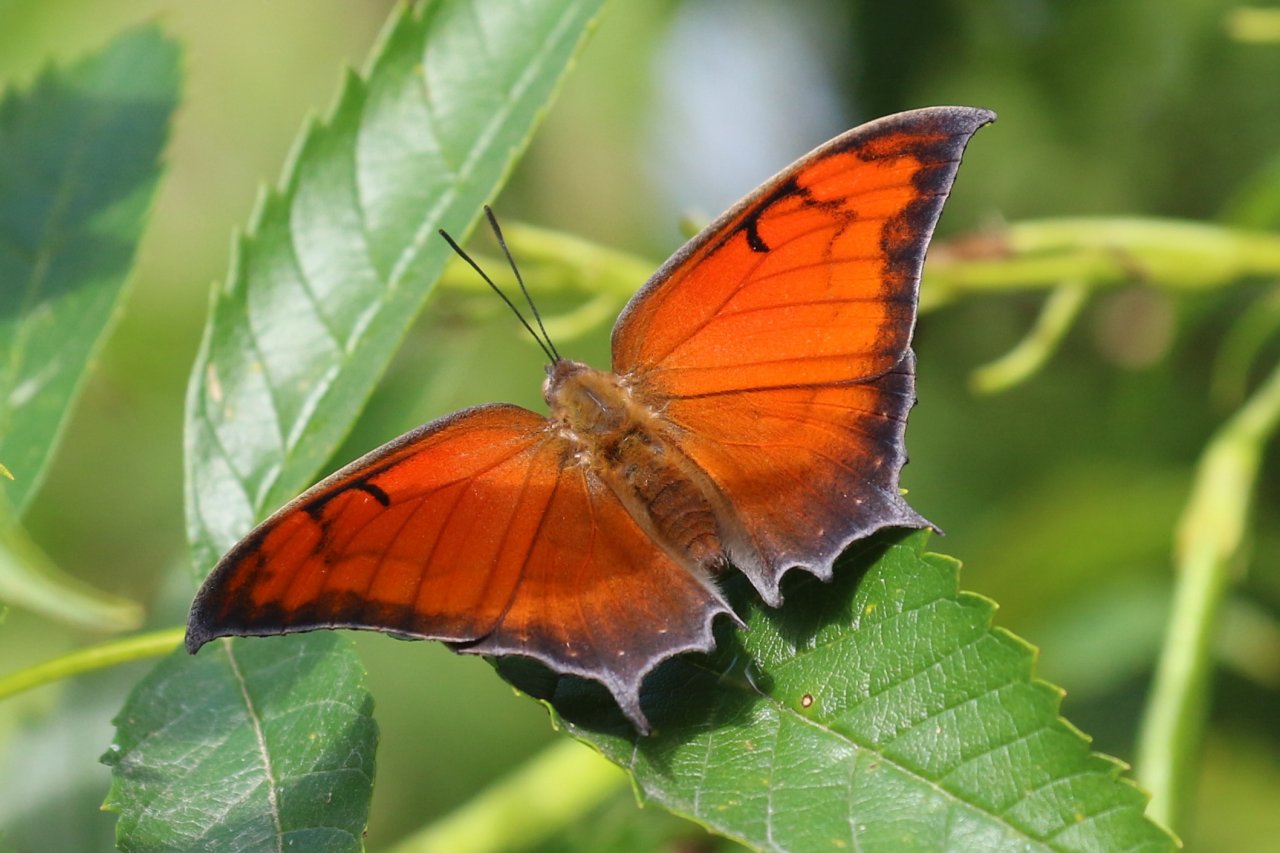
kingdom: Animalia
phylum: Arthropoda
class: Insecta
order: Lepidoptera
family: Nymphalidae
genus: Anaea
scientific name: Anaea aidea
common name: Tropical Leafwing
